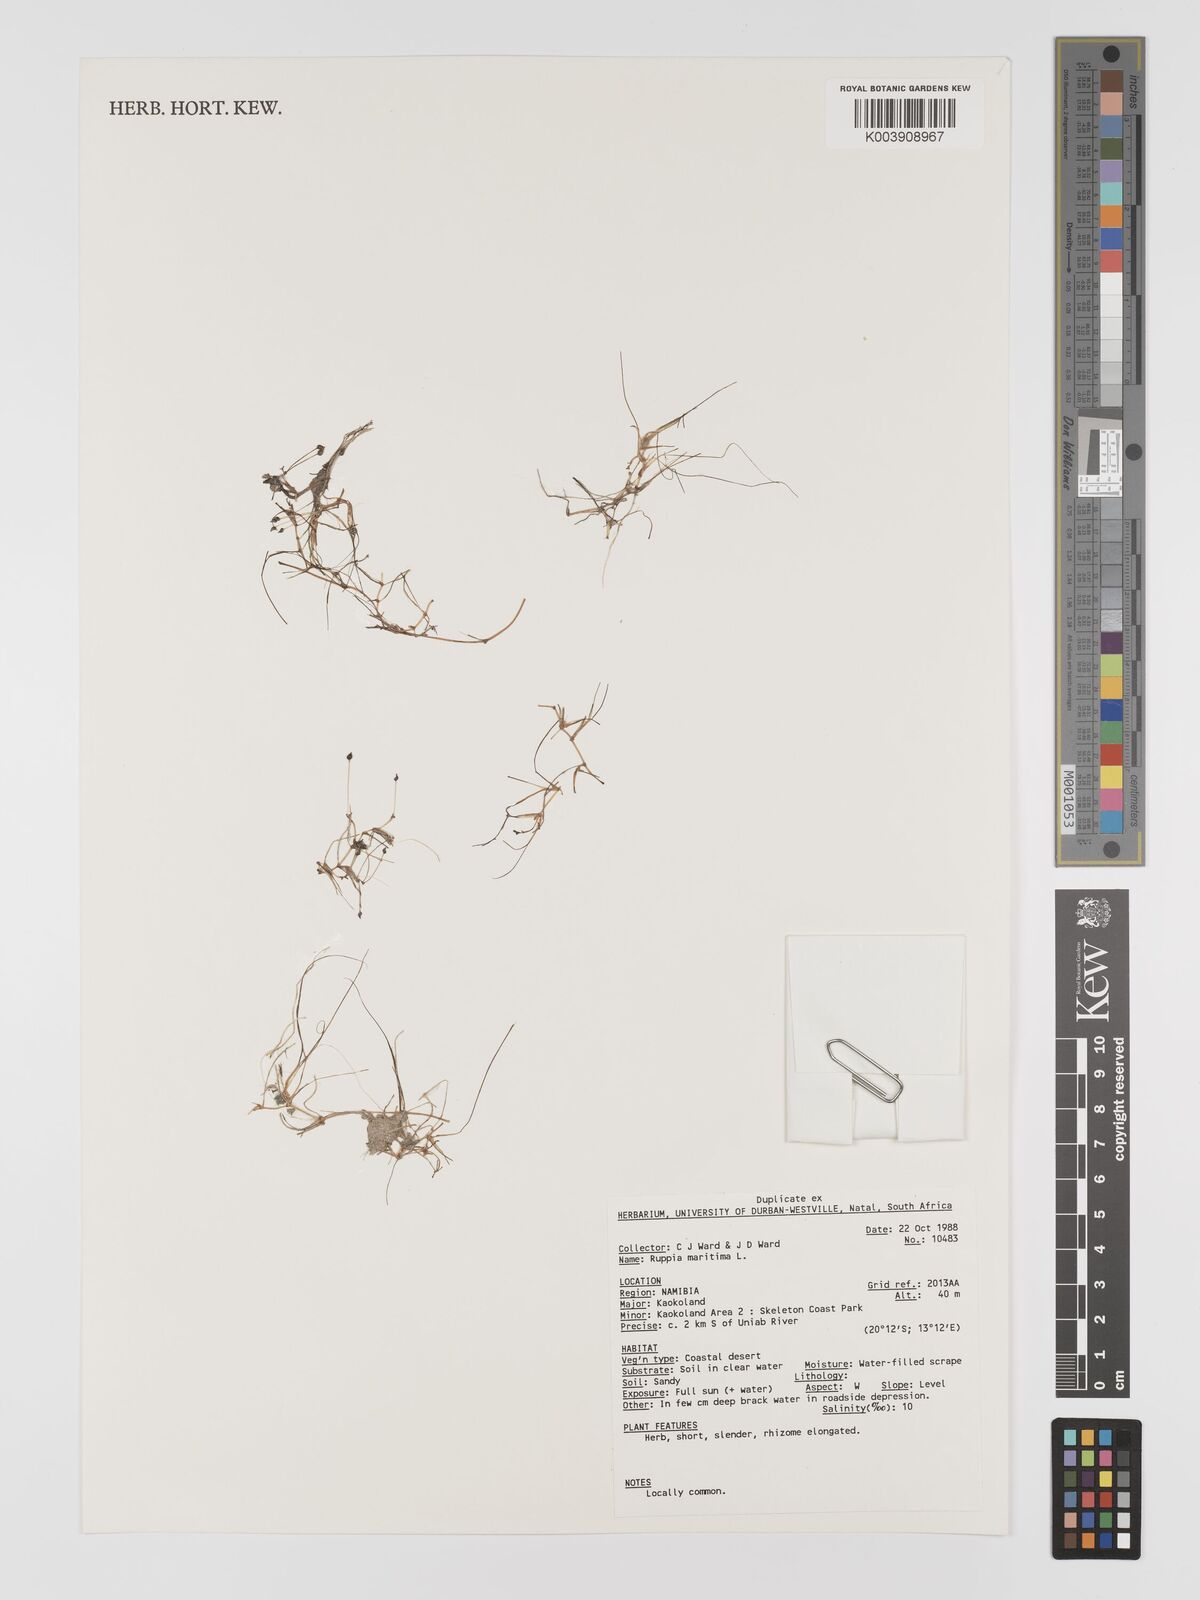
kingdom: Plantae
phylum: Tracheophyta
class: Liliopsida
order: Alismatales
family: Ruppiaceae
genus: Ruppia
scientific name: Ruppia maritima
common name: Beaked tasselweed
